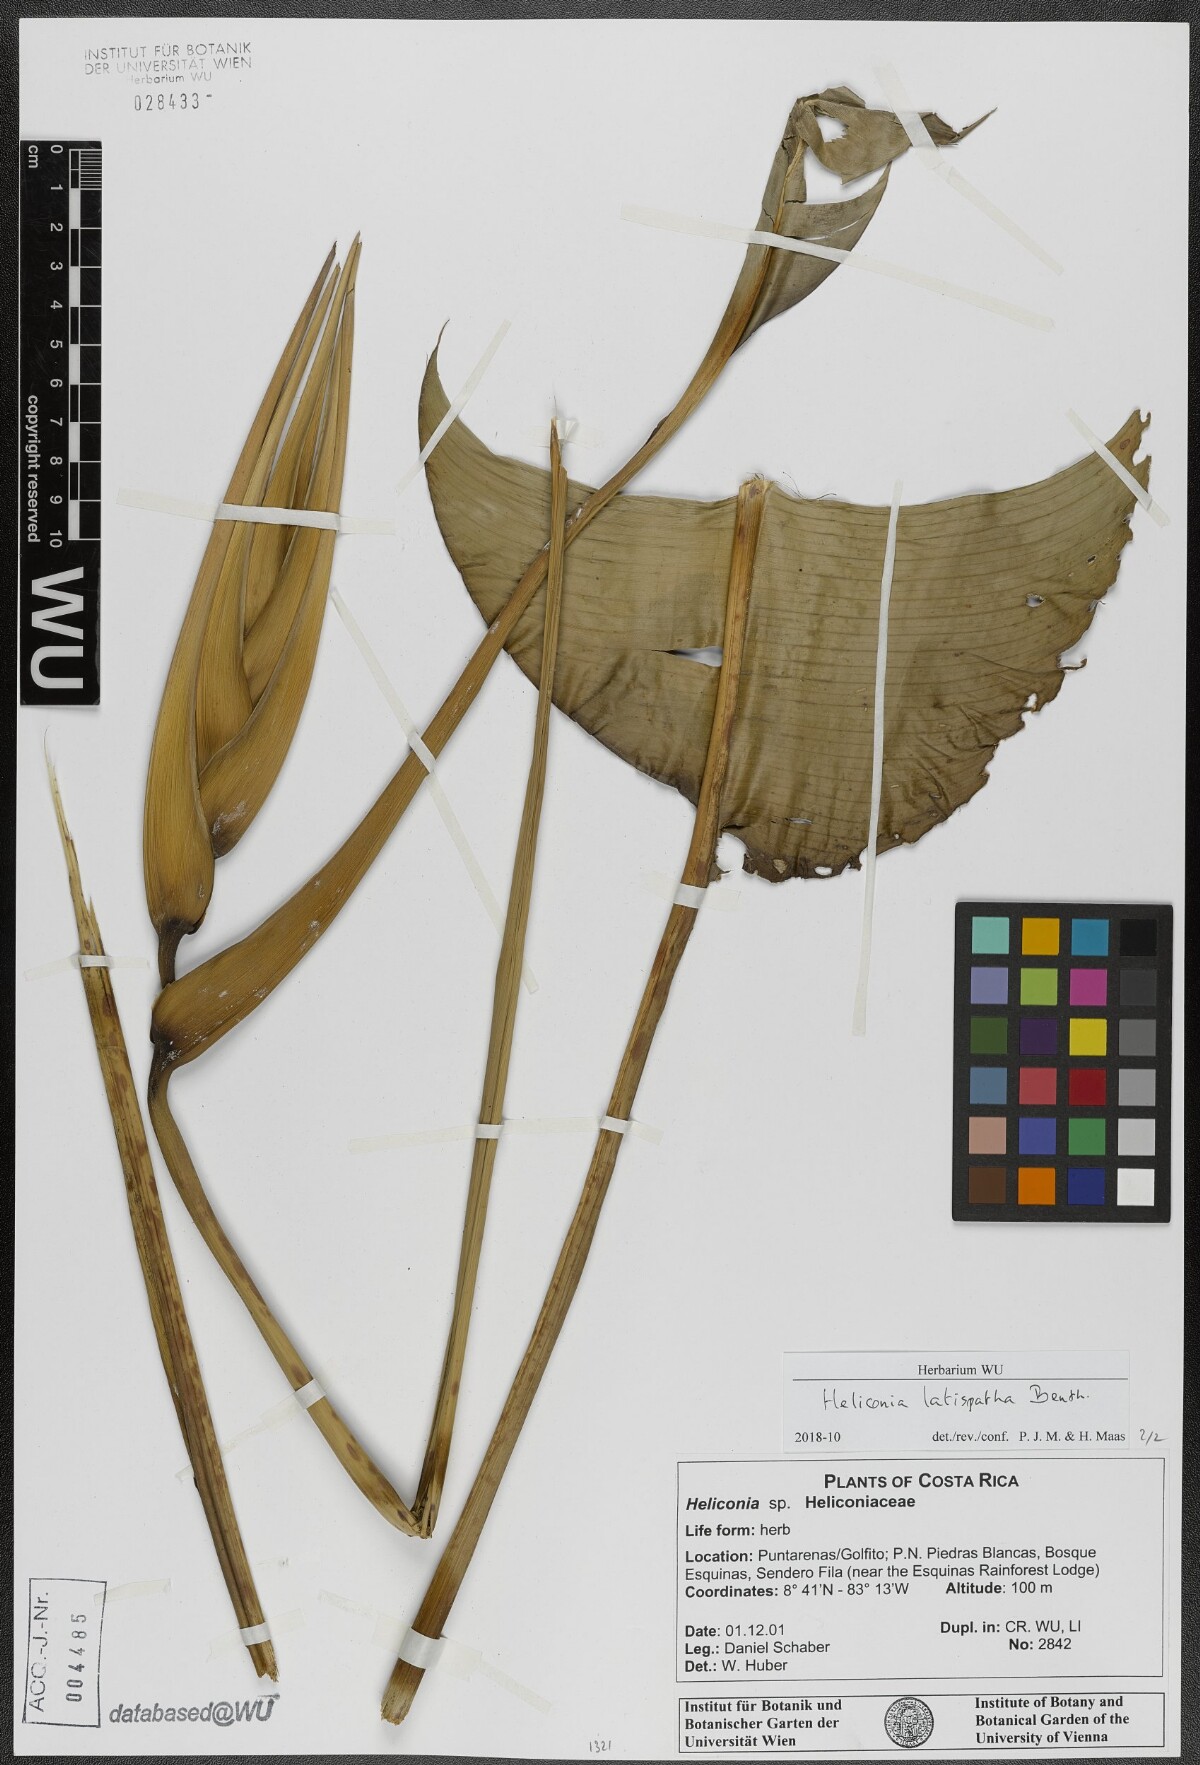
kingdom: Plantae
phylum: Tracheophyta
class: Liliopsida
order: Zingiberales
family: Heliconiaceae
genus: Heliconia
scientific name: Heliconia latispatha
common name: Expanded lobsterclaw
